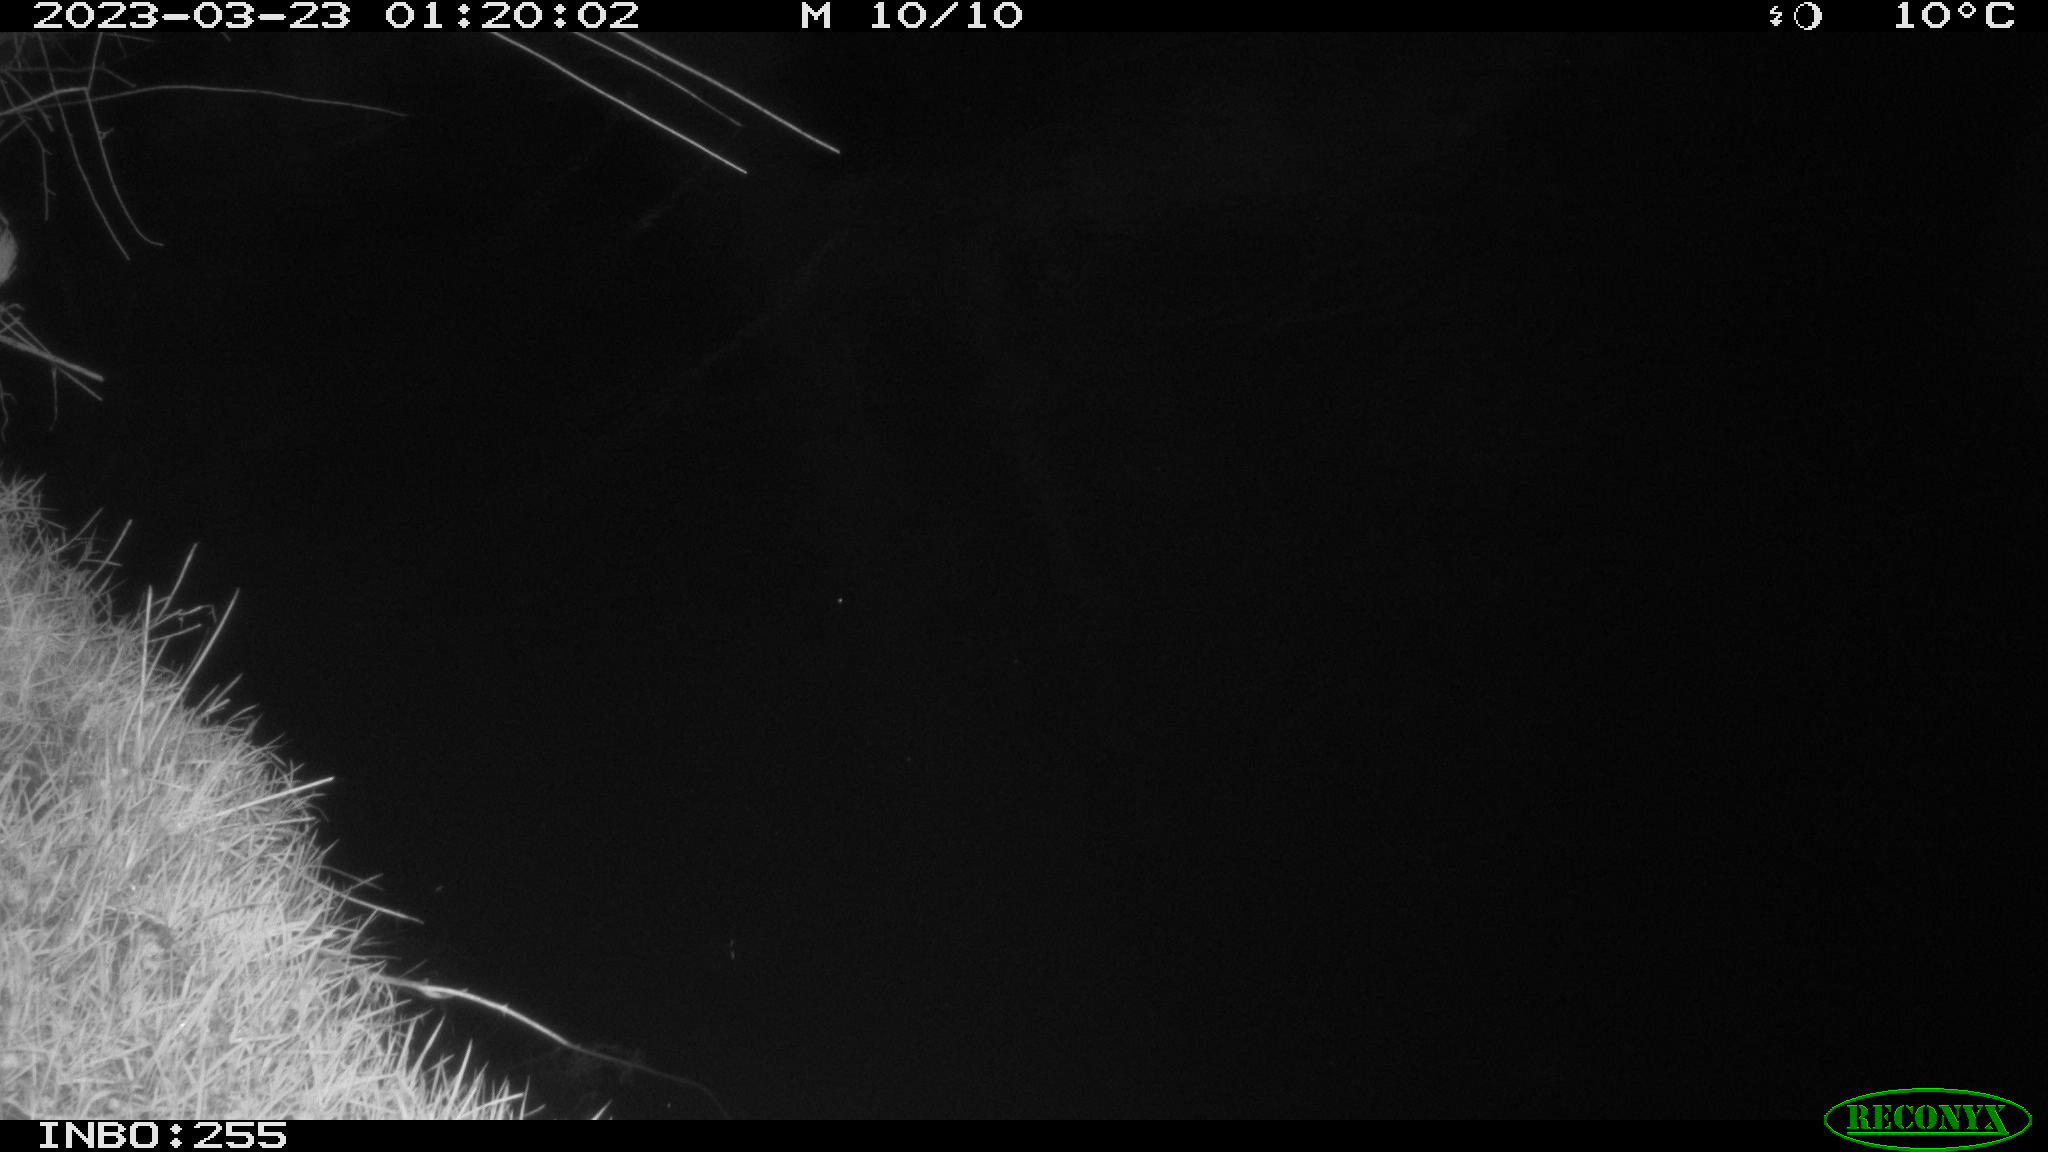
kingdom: Animalia
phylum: Chordata
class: Aves
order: Anseriformes
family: Anatidae
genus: Anas
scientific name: Anas
